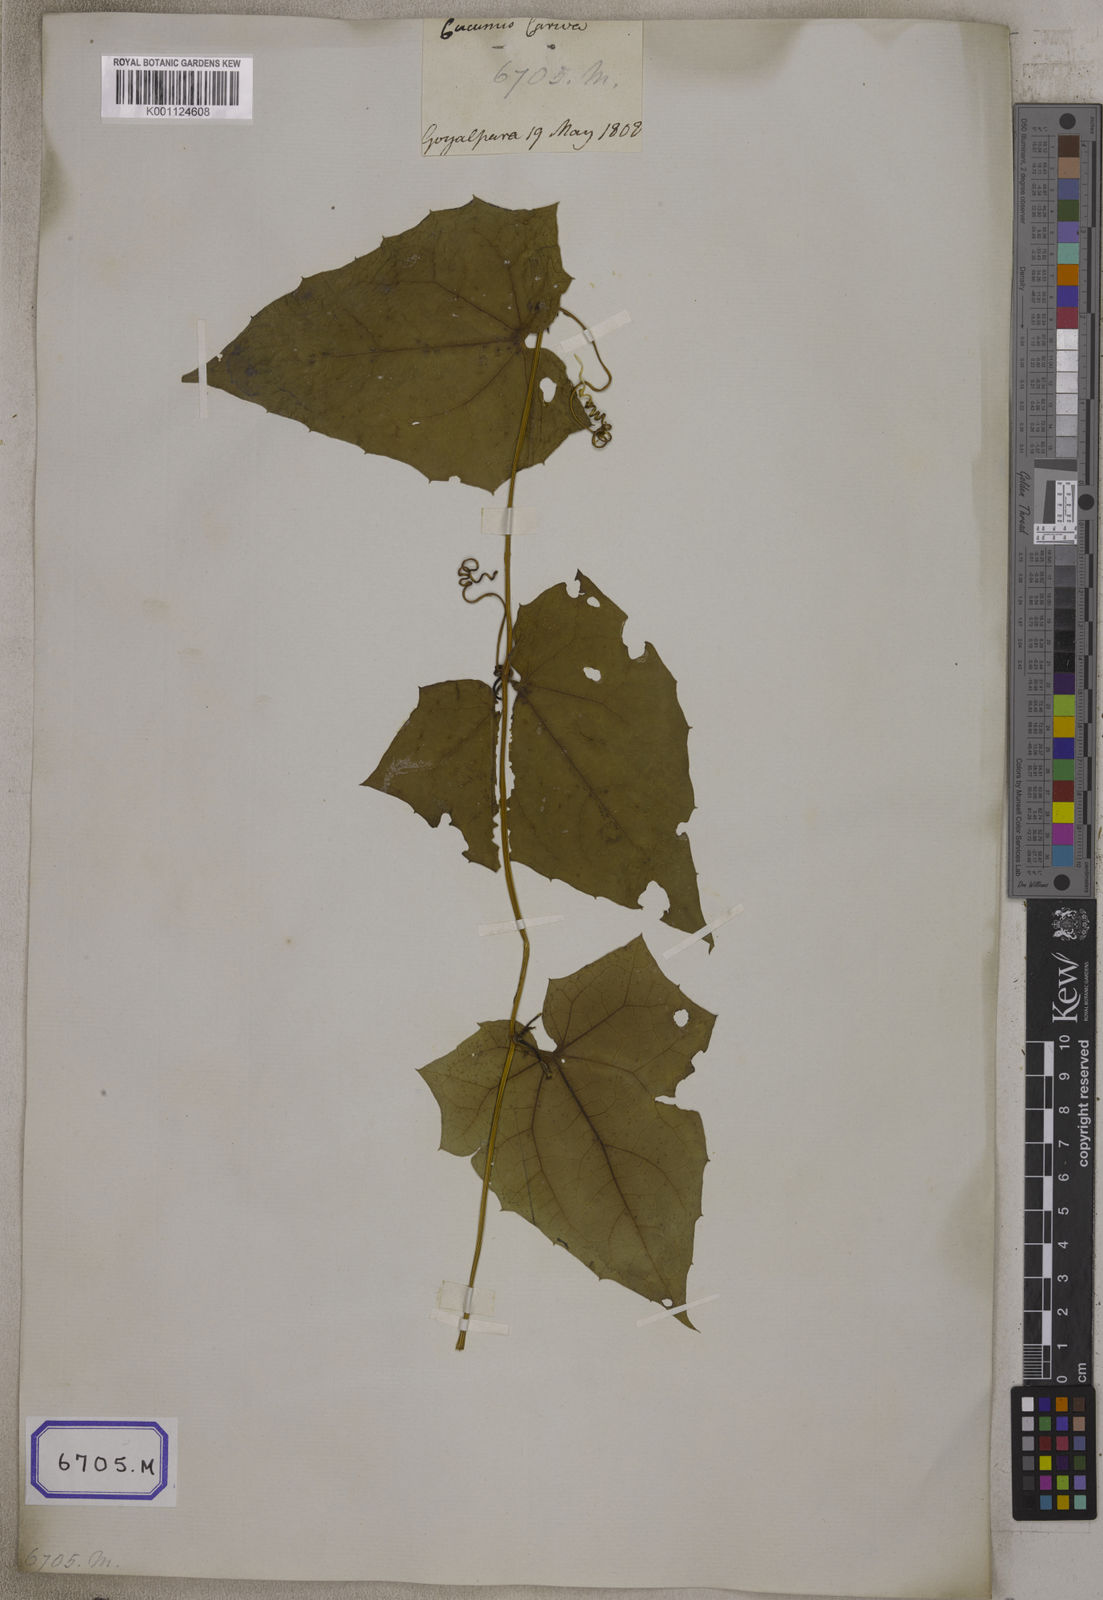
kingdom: Plantae
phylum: Tracheophyta
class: Magnoliopsida
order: Cucurbitales
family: Cucurbitaceae
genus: Bryonia
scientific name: Bryonia
